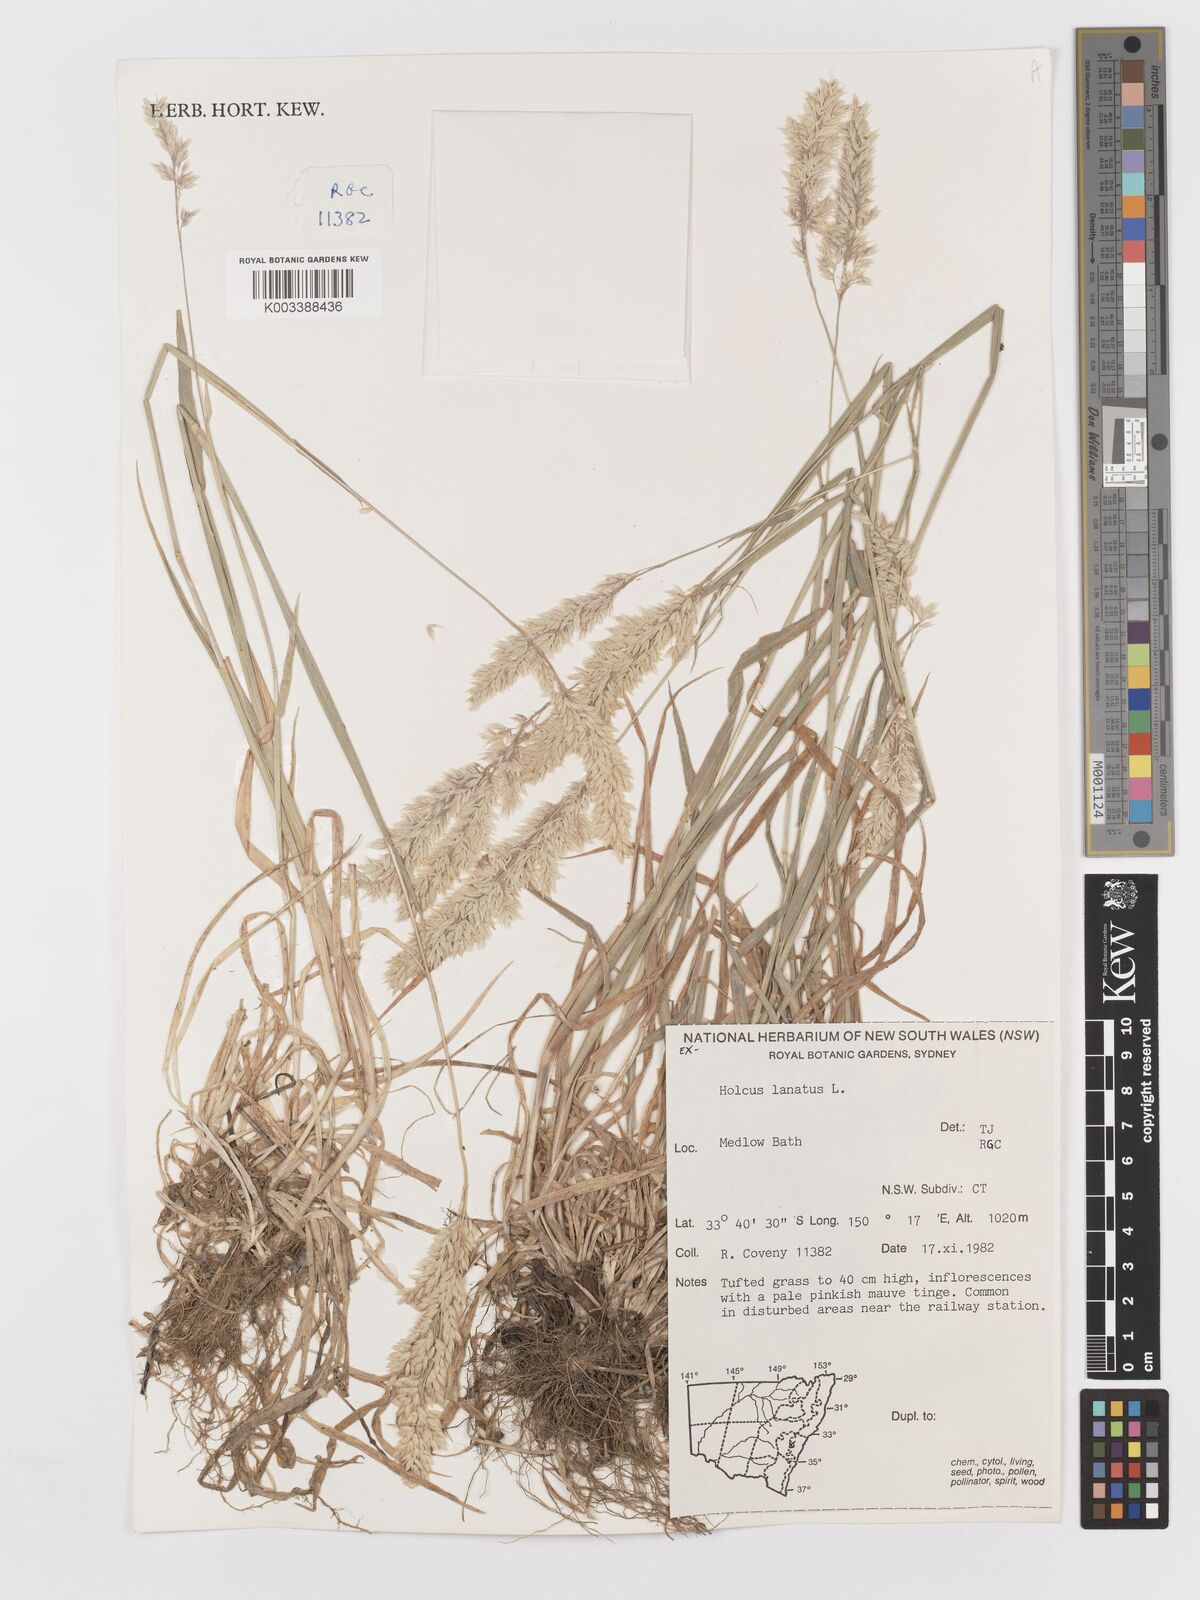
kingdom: Plantae
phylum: Tracheophyta
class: Liliopsida
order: Poales
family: Poaceae
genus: Holcus
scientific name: Holcus lanatus
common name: Yorkshire-fog
